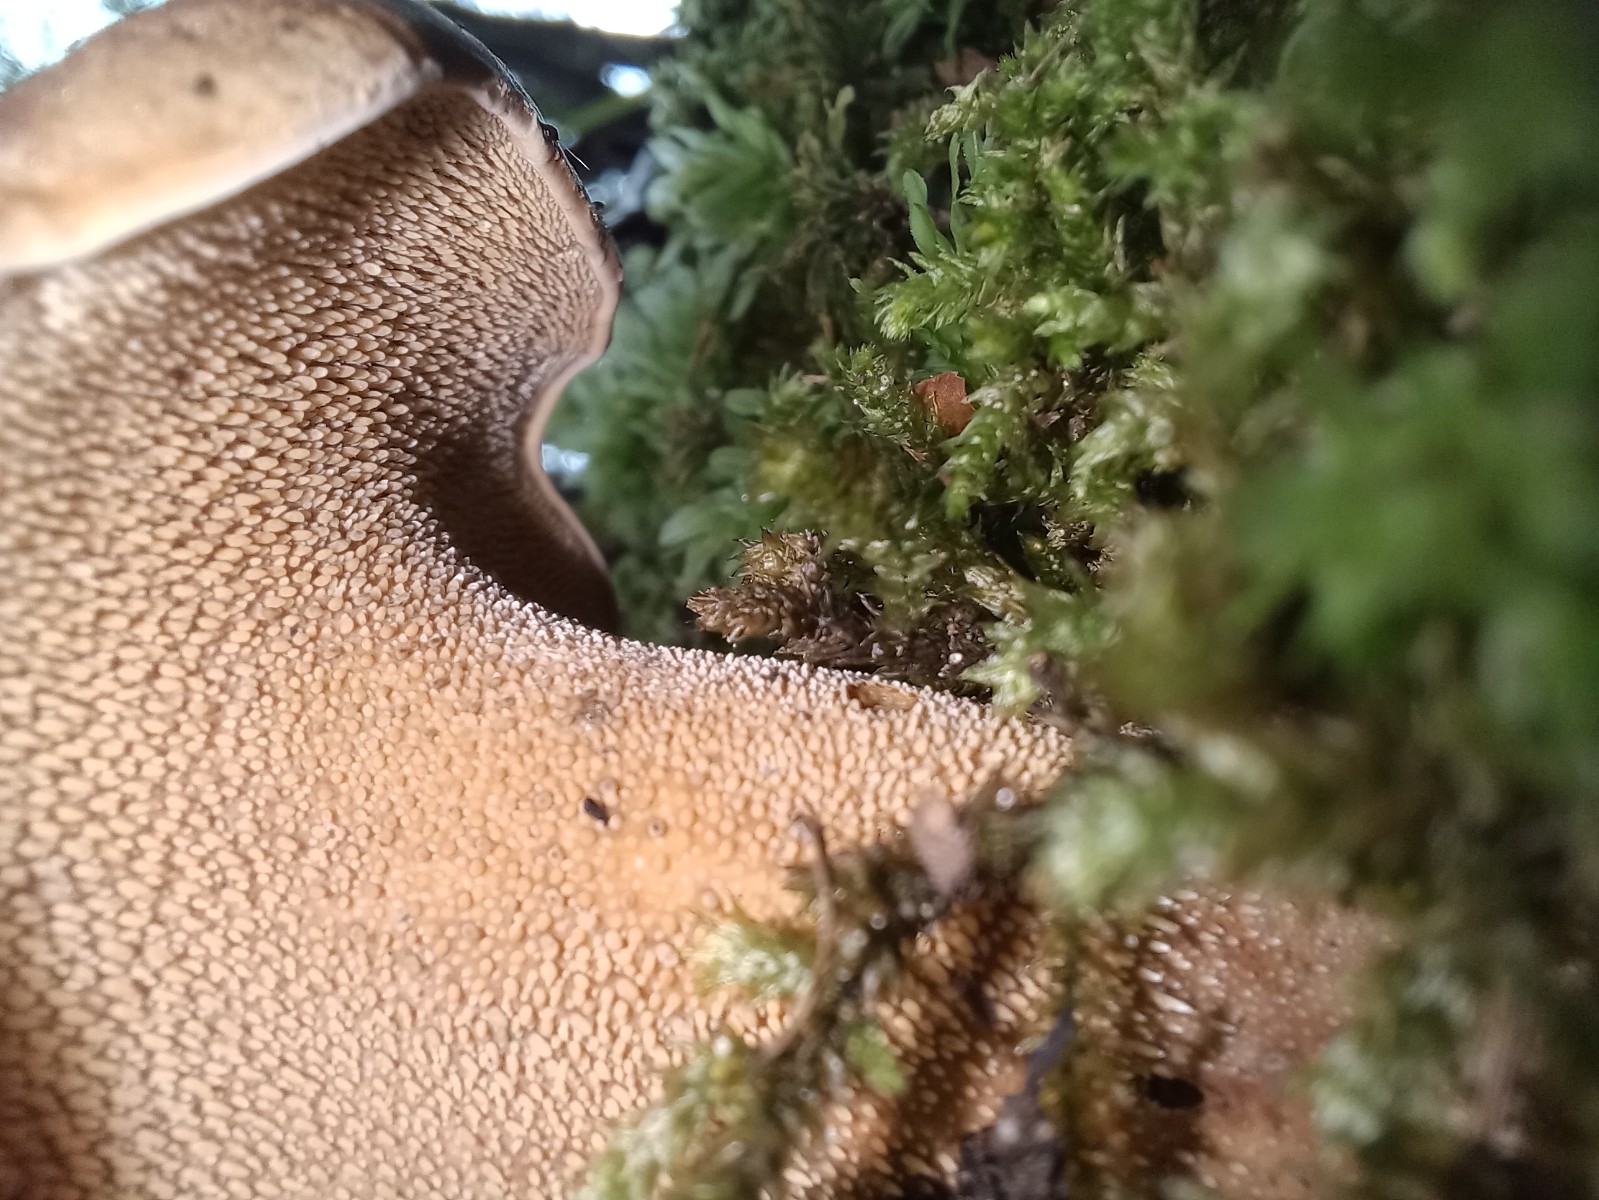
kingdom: Fungi
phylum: Basidiomycota
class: Agaricomycetes
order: Thelephorales
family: Bankeraceae
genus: Hydnellum
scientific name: Hydnellum lepidum
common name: skrænt-korkpigsvamp
